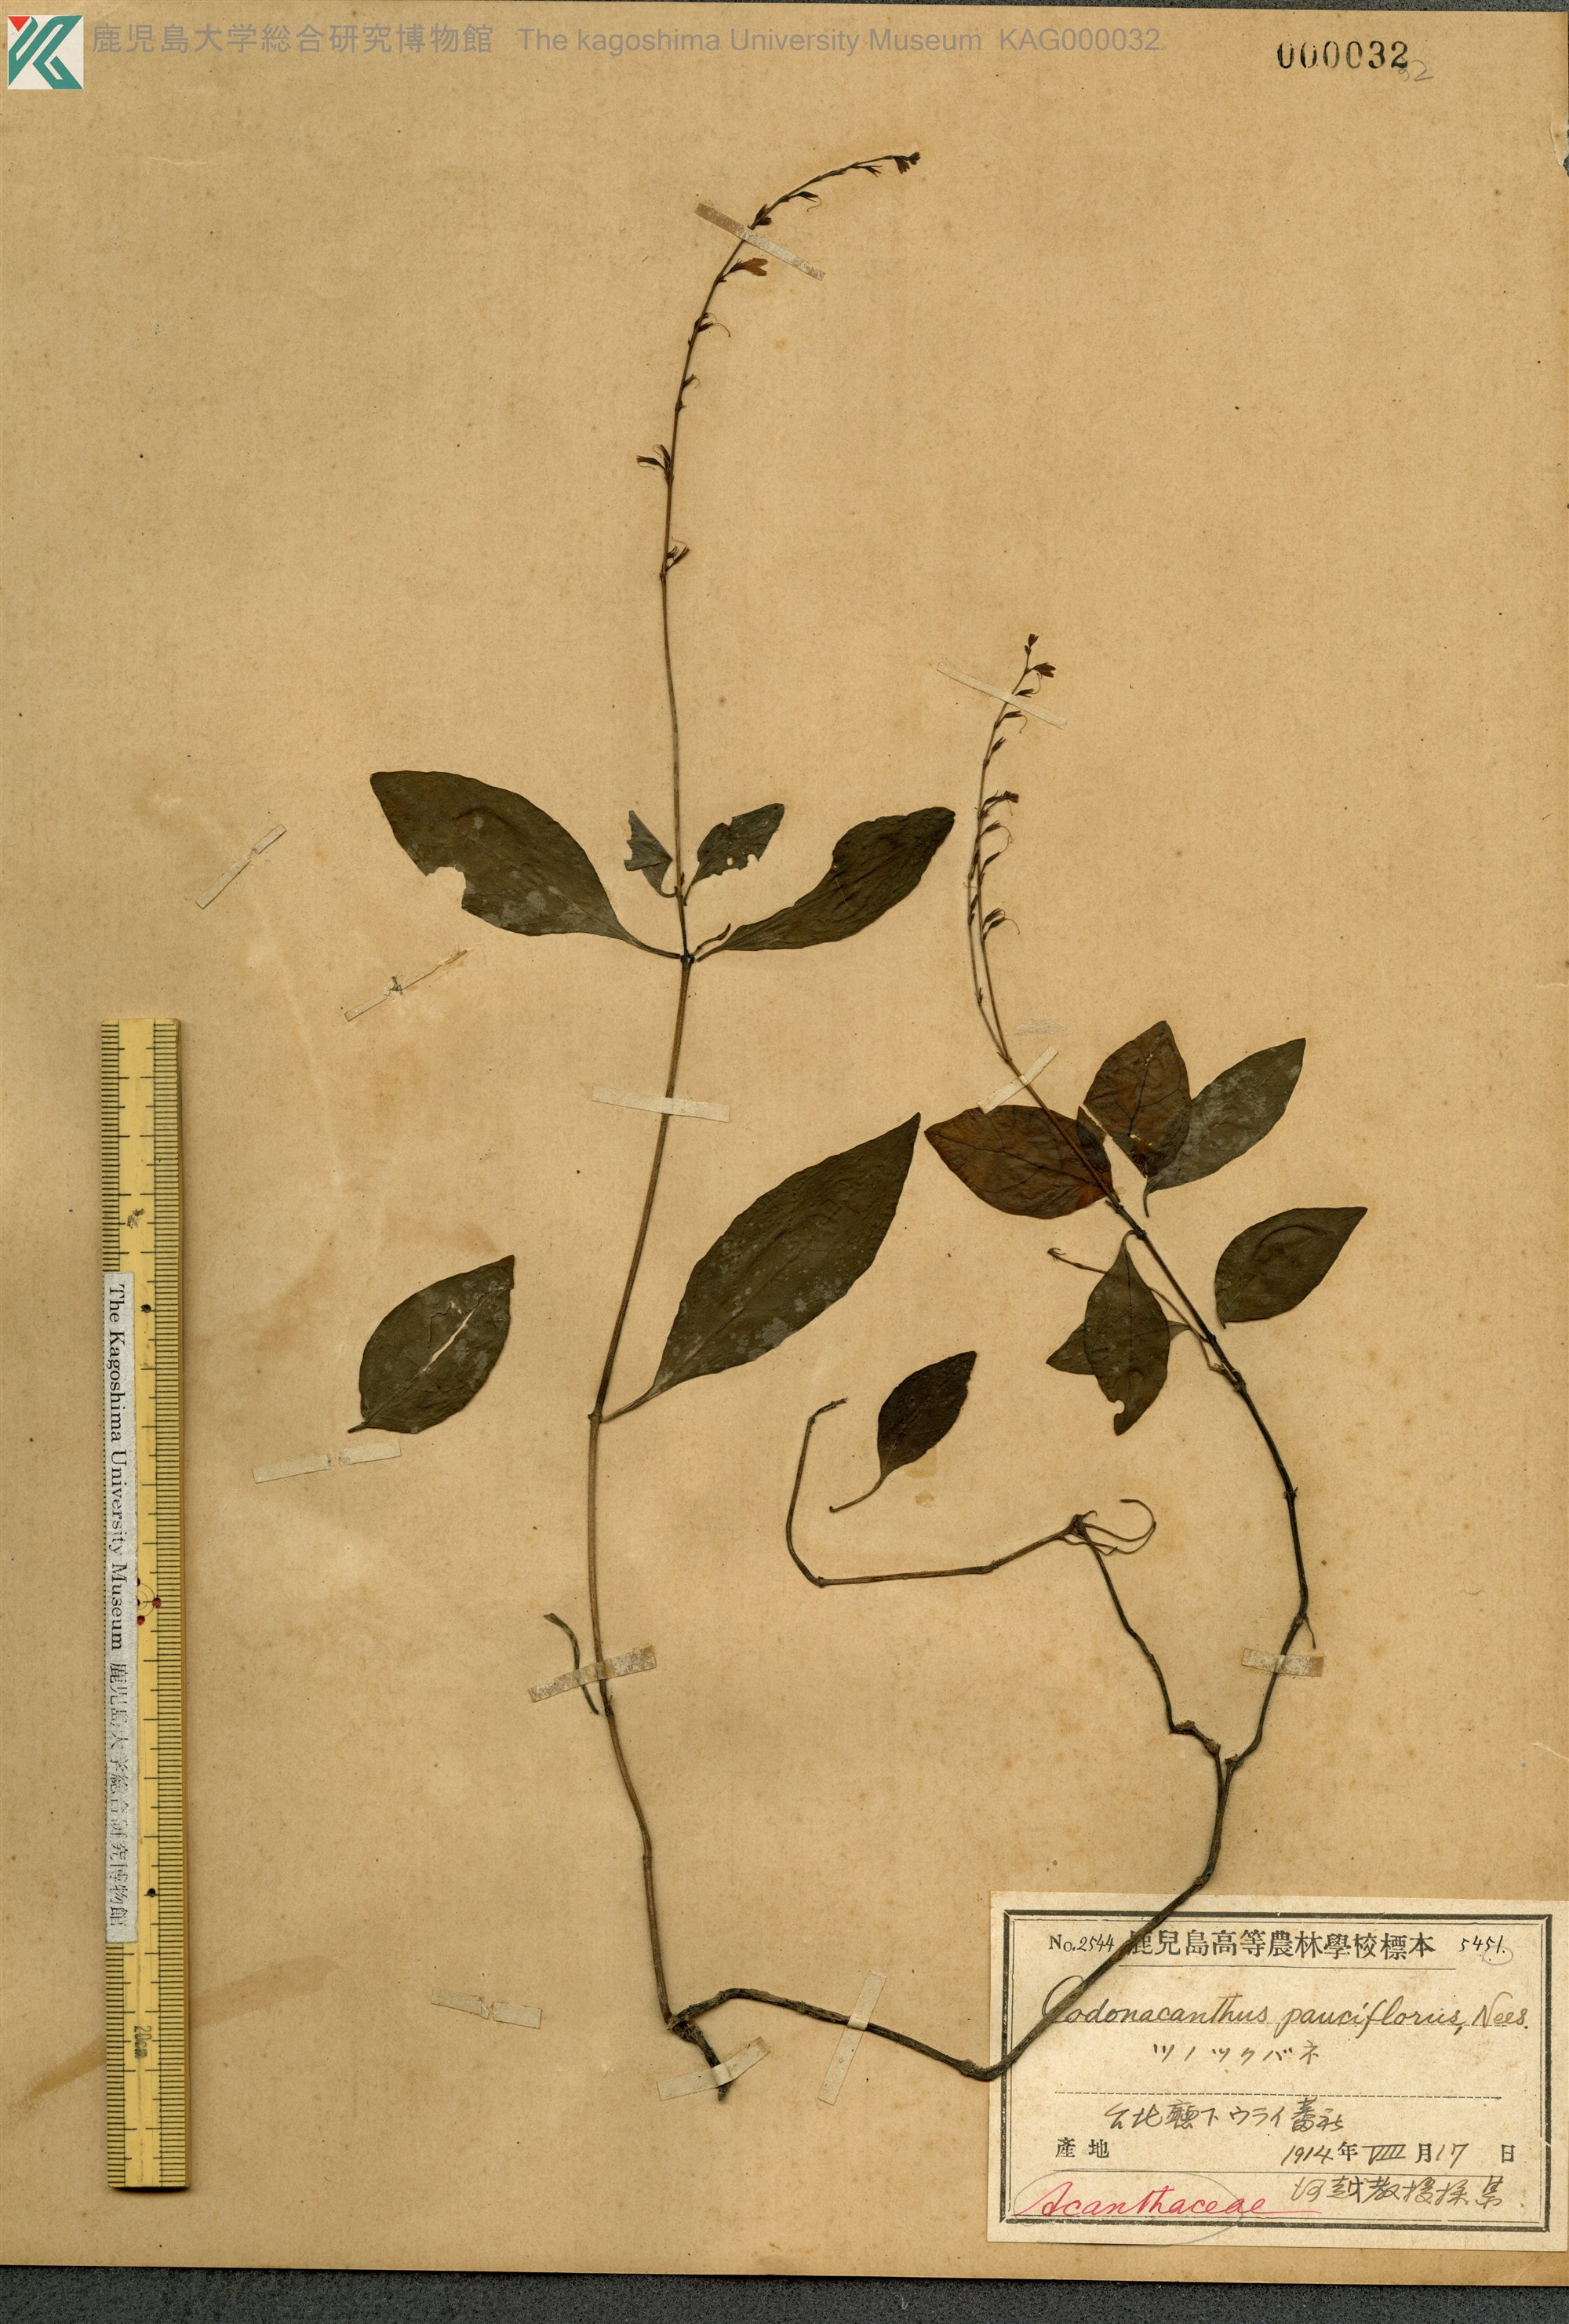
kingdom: Plantae
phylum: Tracheophyta
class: Magnoliopsida
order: Lamiales
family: Acanthaceae
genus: Codonacanthus
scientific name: Codonacanthus pauciflorus
